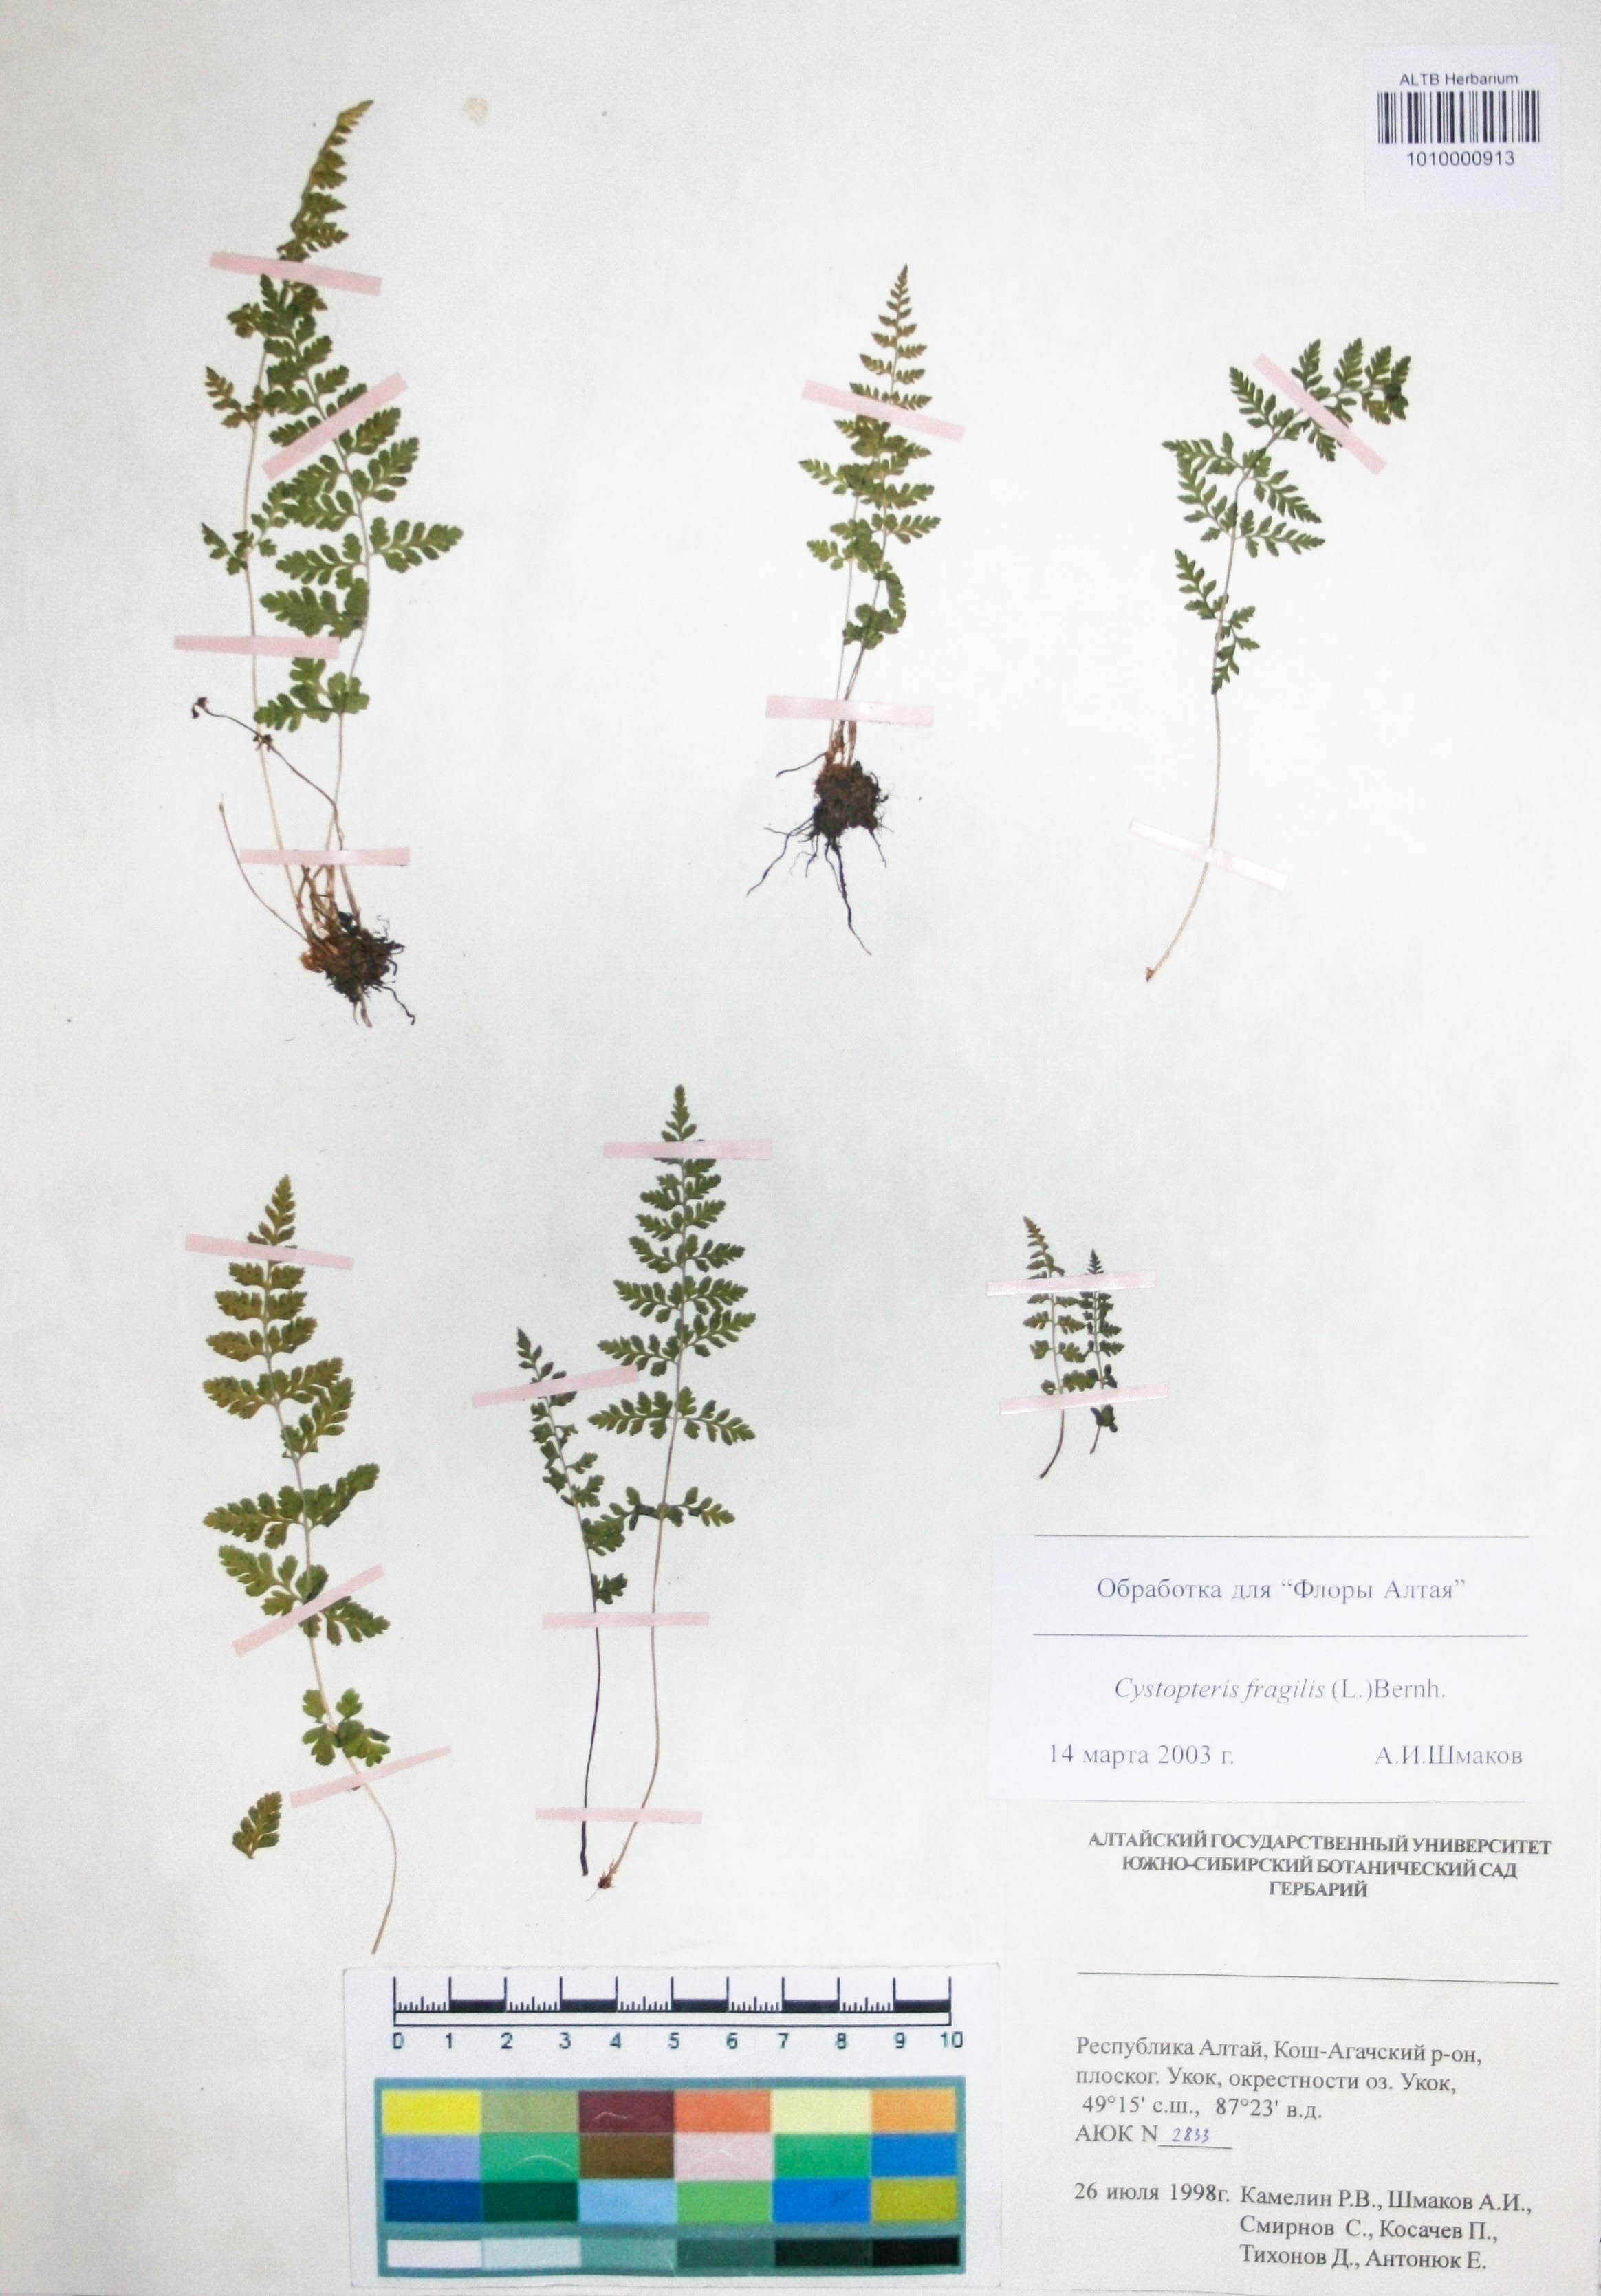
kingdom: Plantae
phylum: Tracheophyta
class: Polypodiopsida
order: Polypodiales
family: Cystopteridaceae
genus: Cystopteris
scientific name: Cystopteris fragilis
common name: Brittle bladder fern
